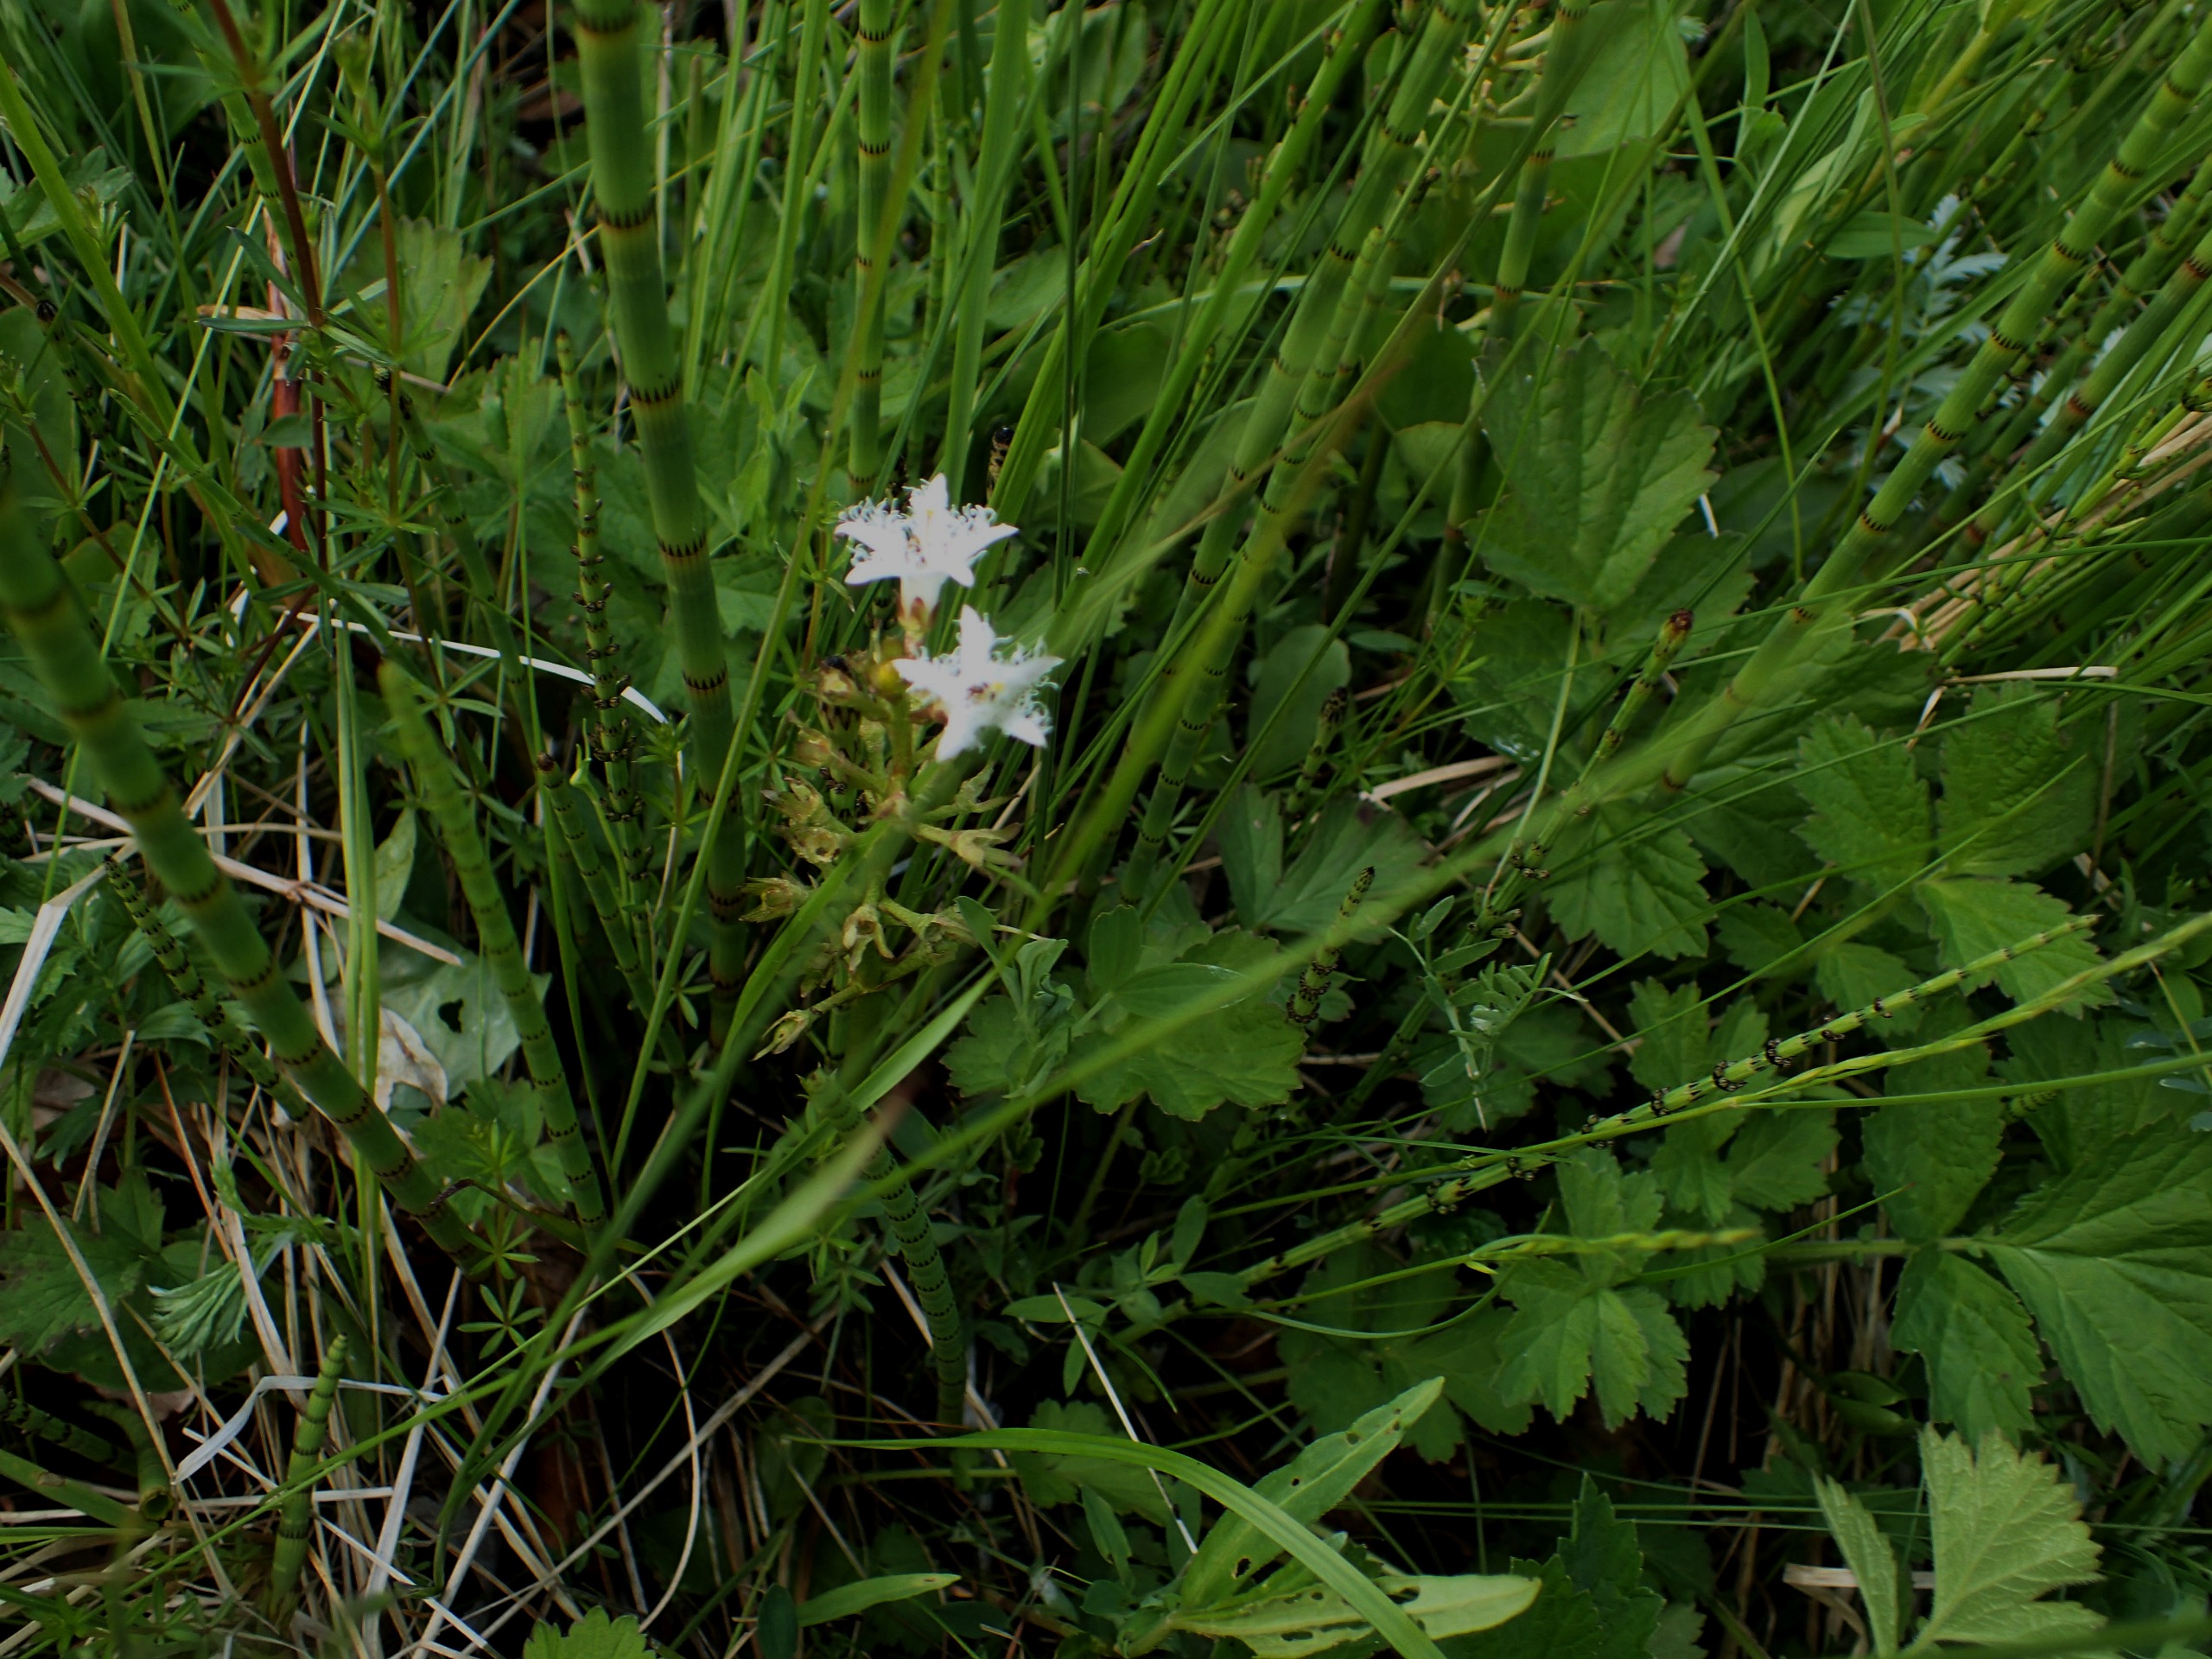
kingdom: Plantae
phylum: Tracheophyta
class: Magnoliopsida
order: Asterales
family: Menyanthaceae
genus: Menyanthes
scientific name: Menyanthes trifoliata
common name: Bukkeblad
